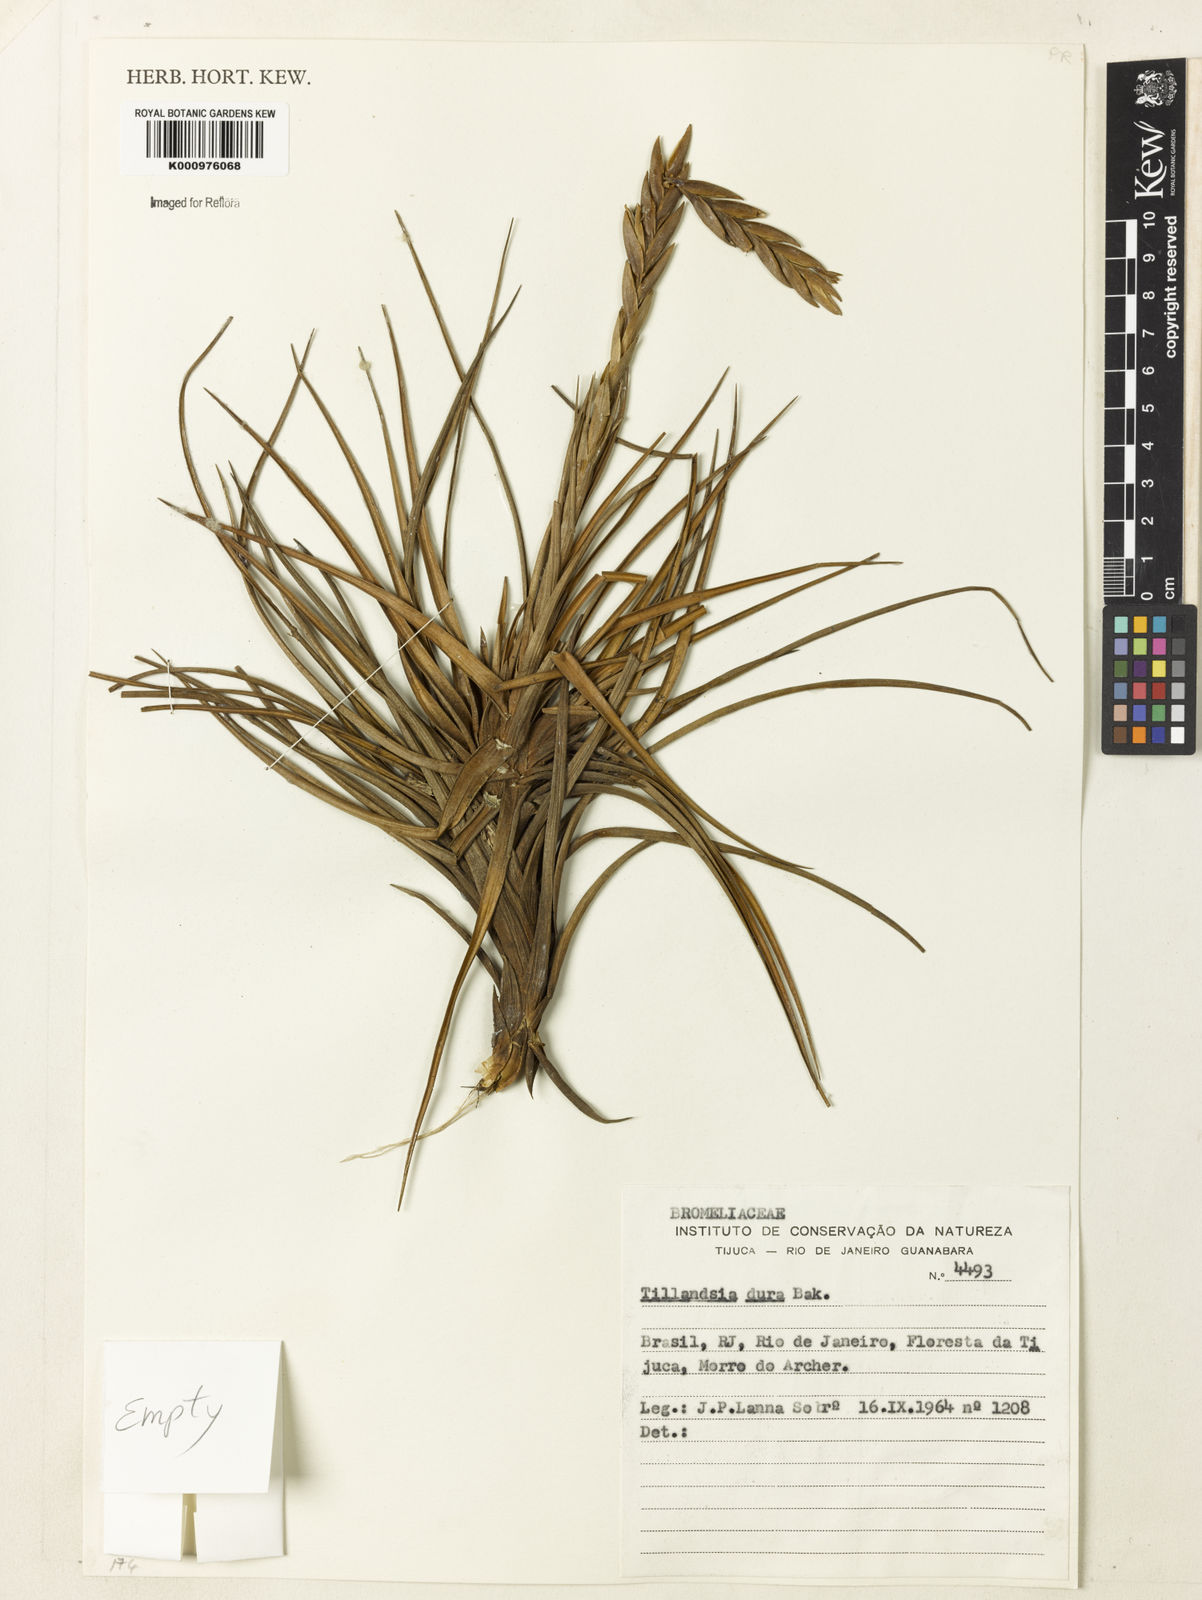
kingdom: Plantae
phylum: Tracheophyta
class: Liliopsida
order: Poales
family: Bromeliaceae
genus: Tillandsia
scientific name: Tillandsia dura
